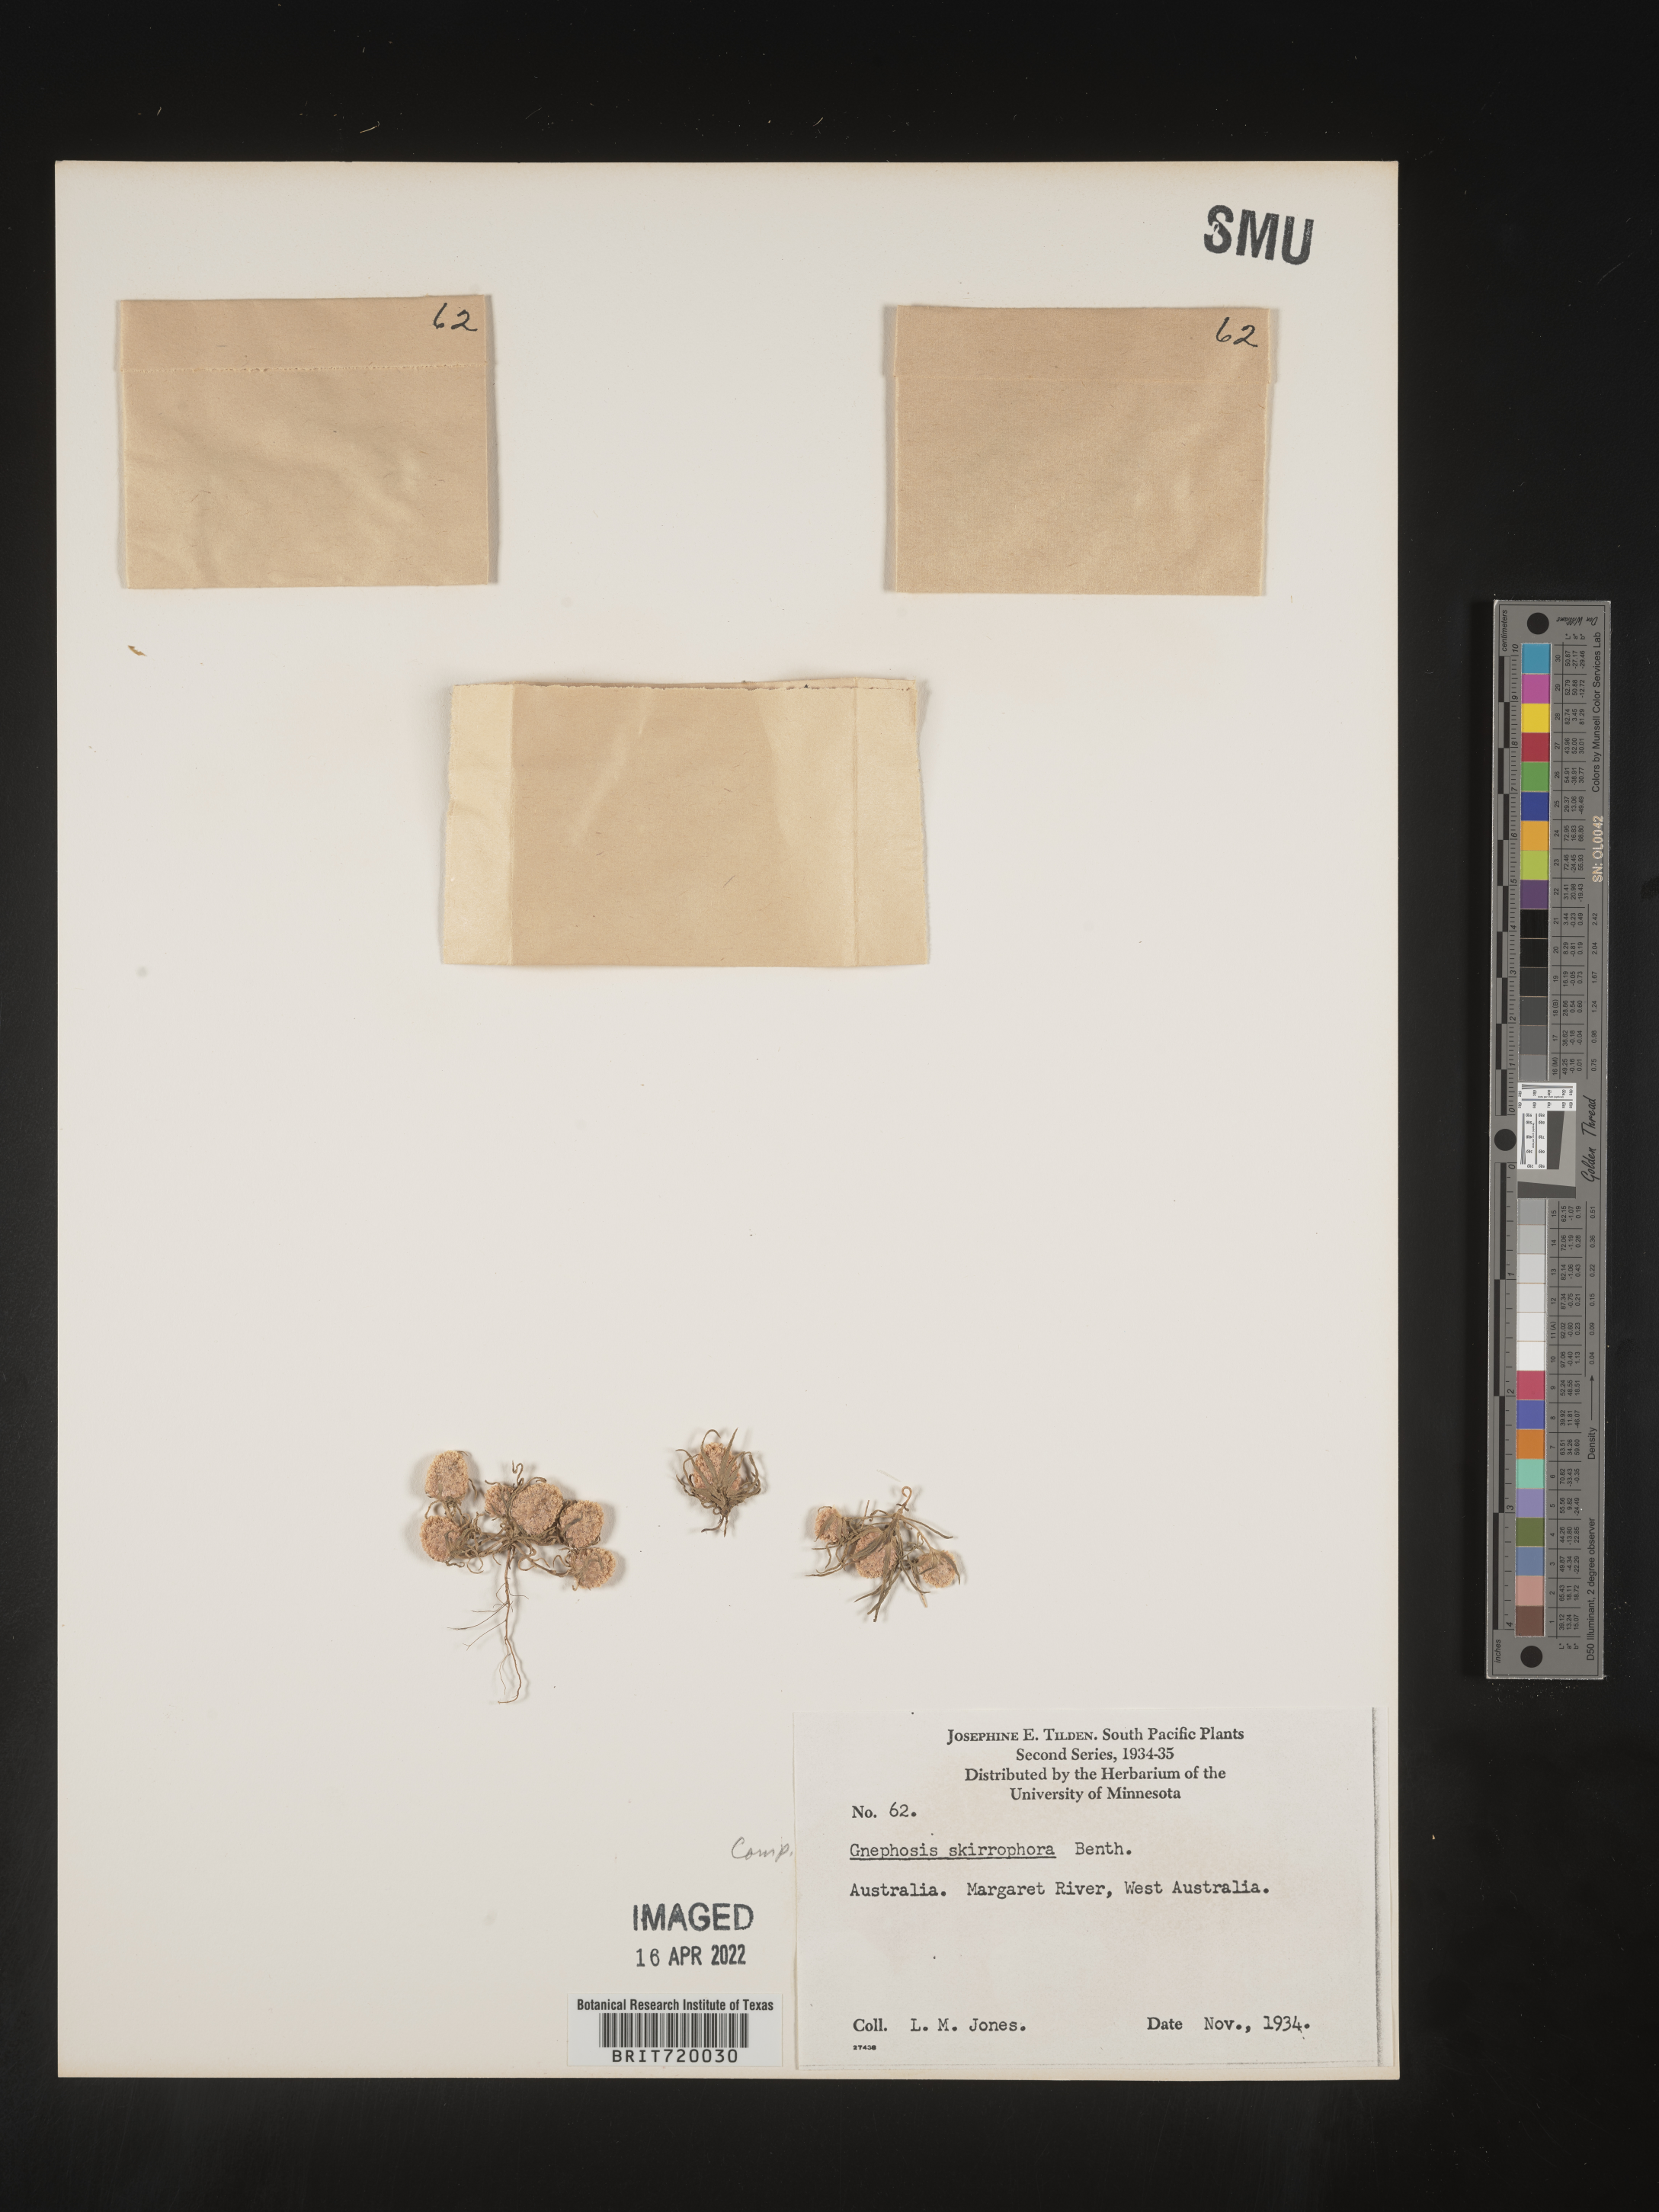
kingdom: Plantae
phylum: Tracheophyta
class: Magnoliopsida
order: Asterales
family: Asteraceae
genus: Gnephosis
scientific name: Gnephosis
